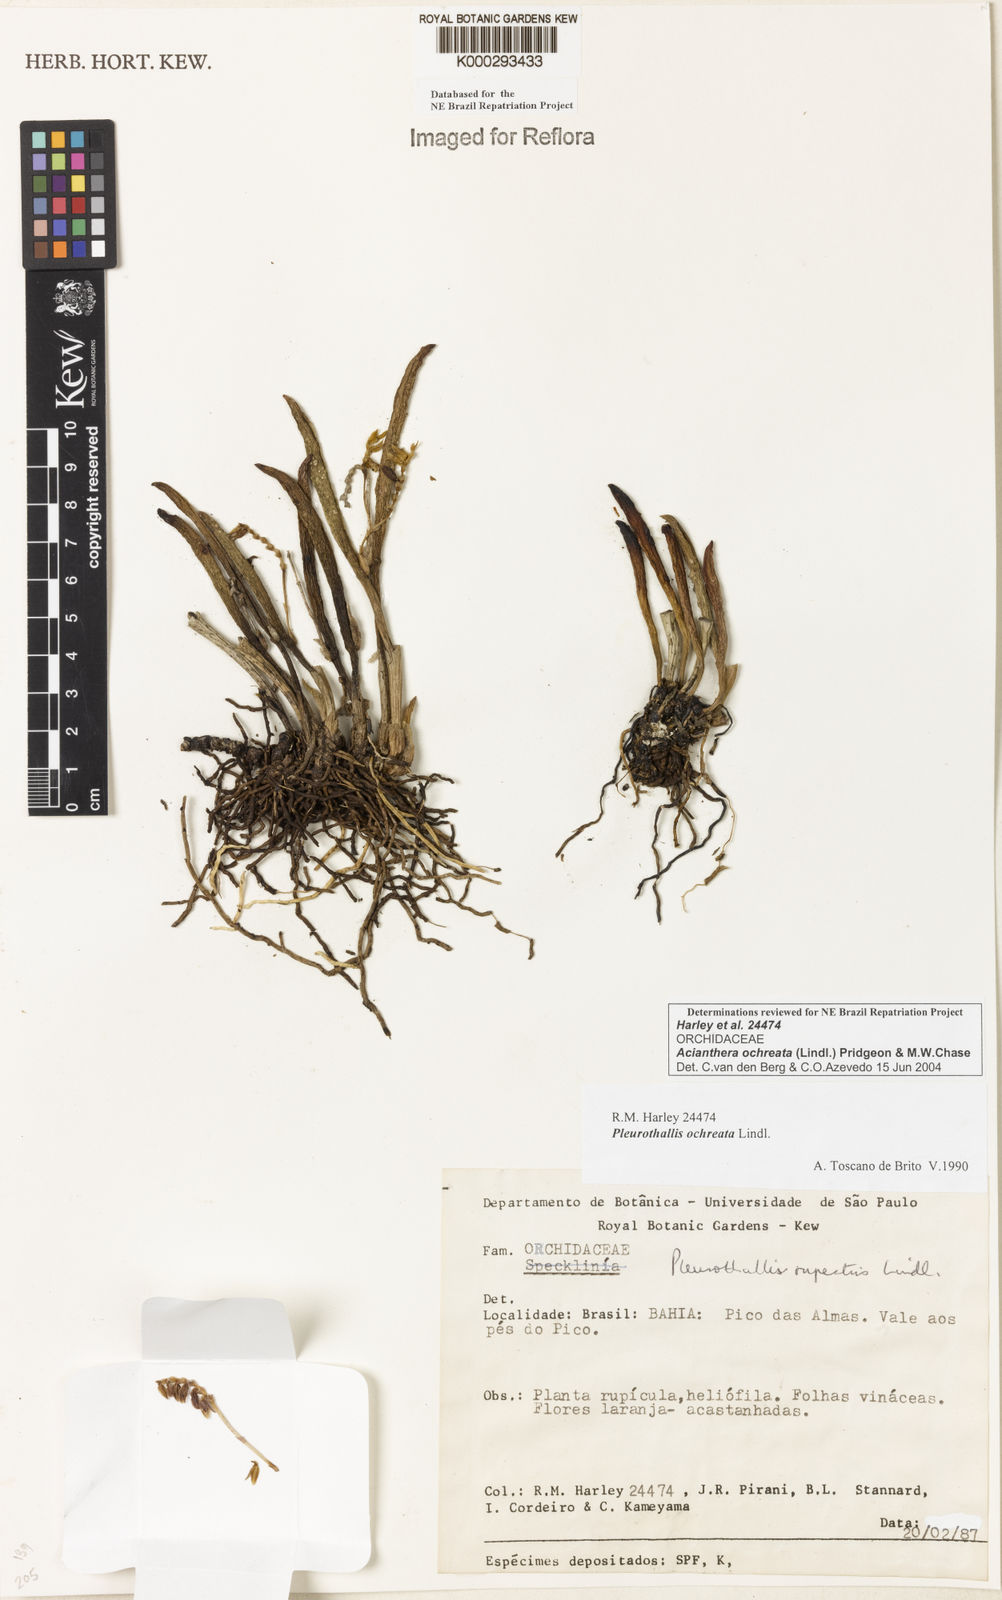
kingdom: Plantae
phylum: Tracheophyta
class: Liliopsida
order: Asparagales
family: Orchidaceae
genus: Acianthera
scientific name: Acianthera ochreata
